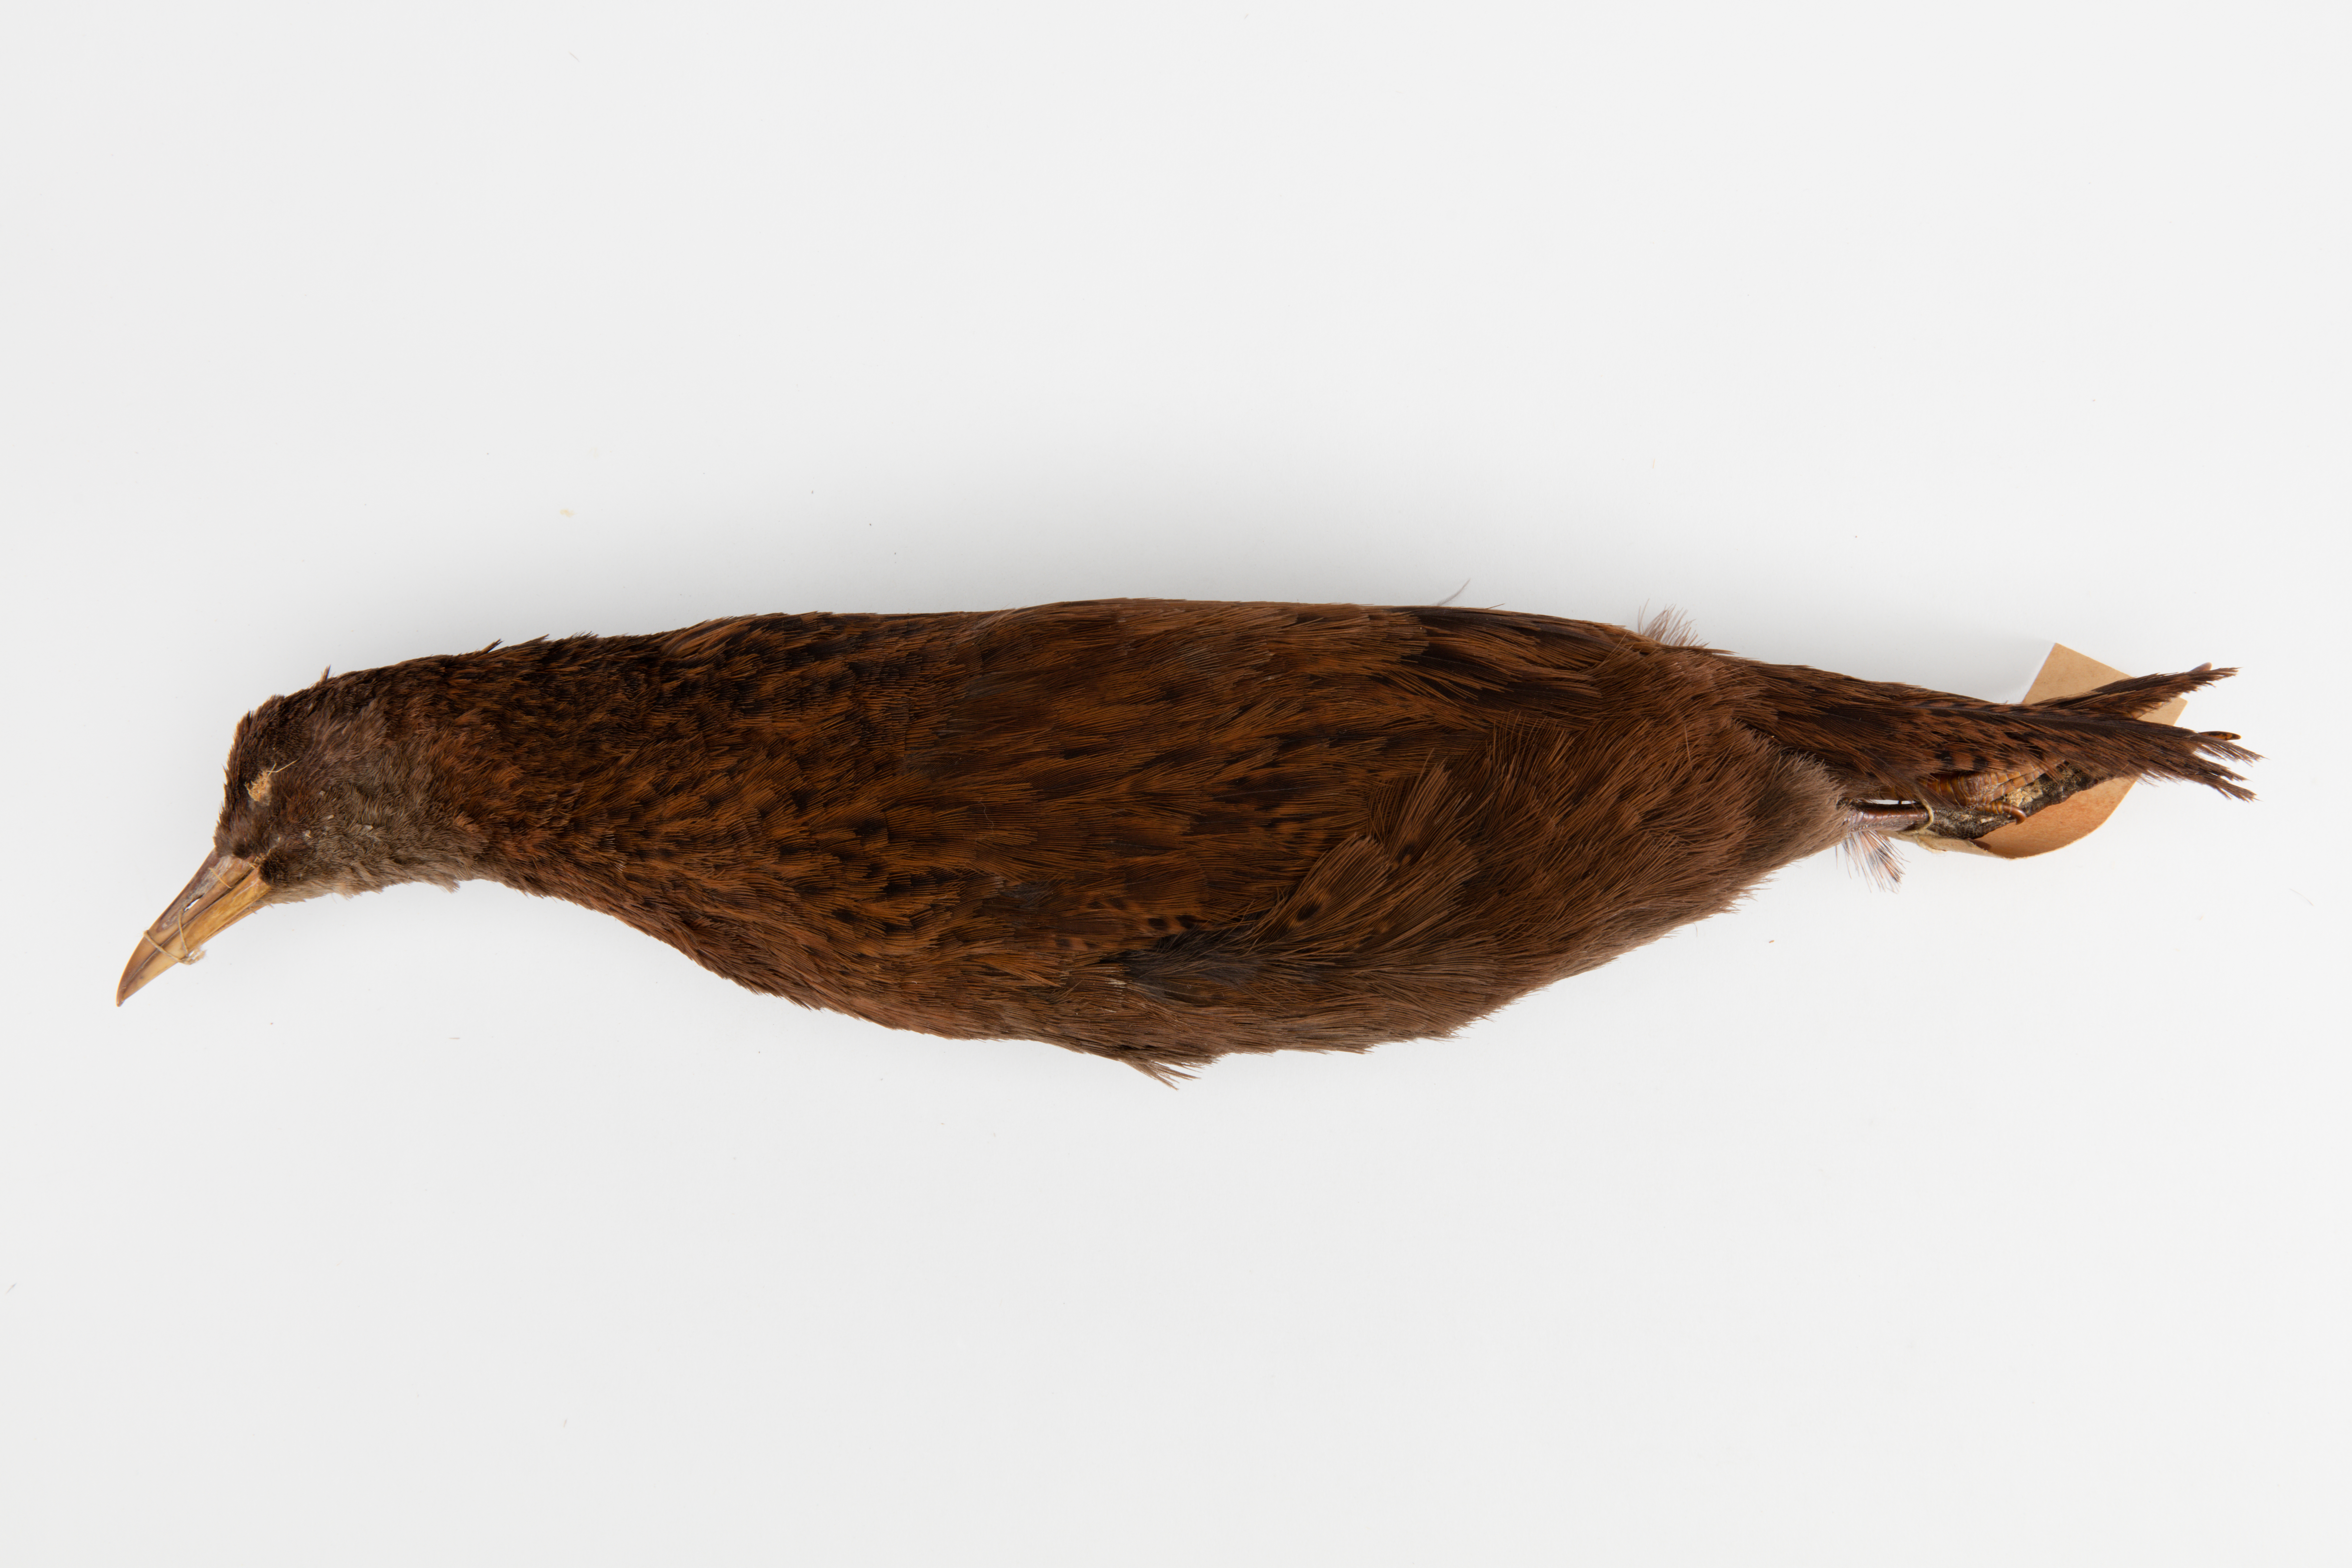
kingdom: Animalia
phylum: Chordata
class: Aves
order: Gruiformes
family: Rallidae
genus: Gallirallus
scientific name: Gallirallus australis
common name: Weka
